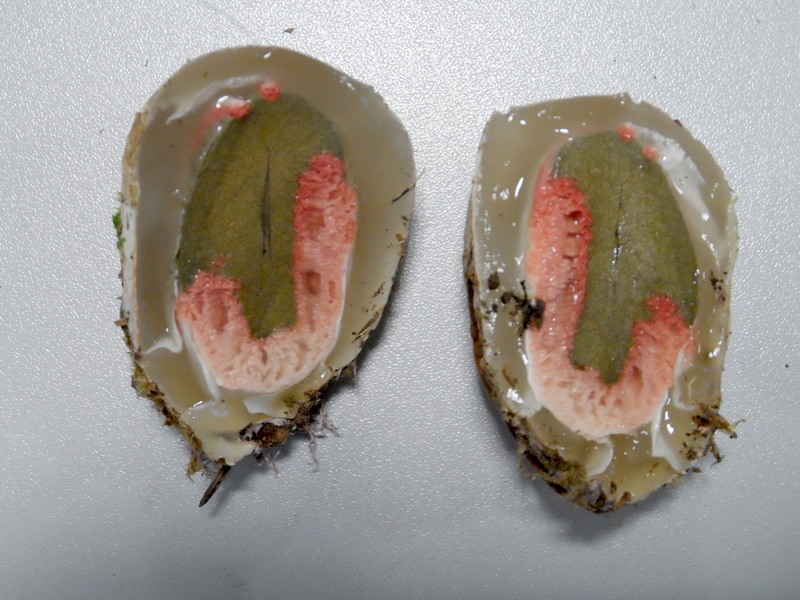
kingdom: Fungi
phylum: Basidiomycota
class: Agaricomycetes
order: Phallales
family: Phallaceae
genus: Clathrus
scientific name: Clathrus archeri
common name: Devil's fingers
